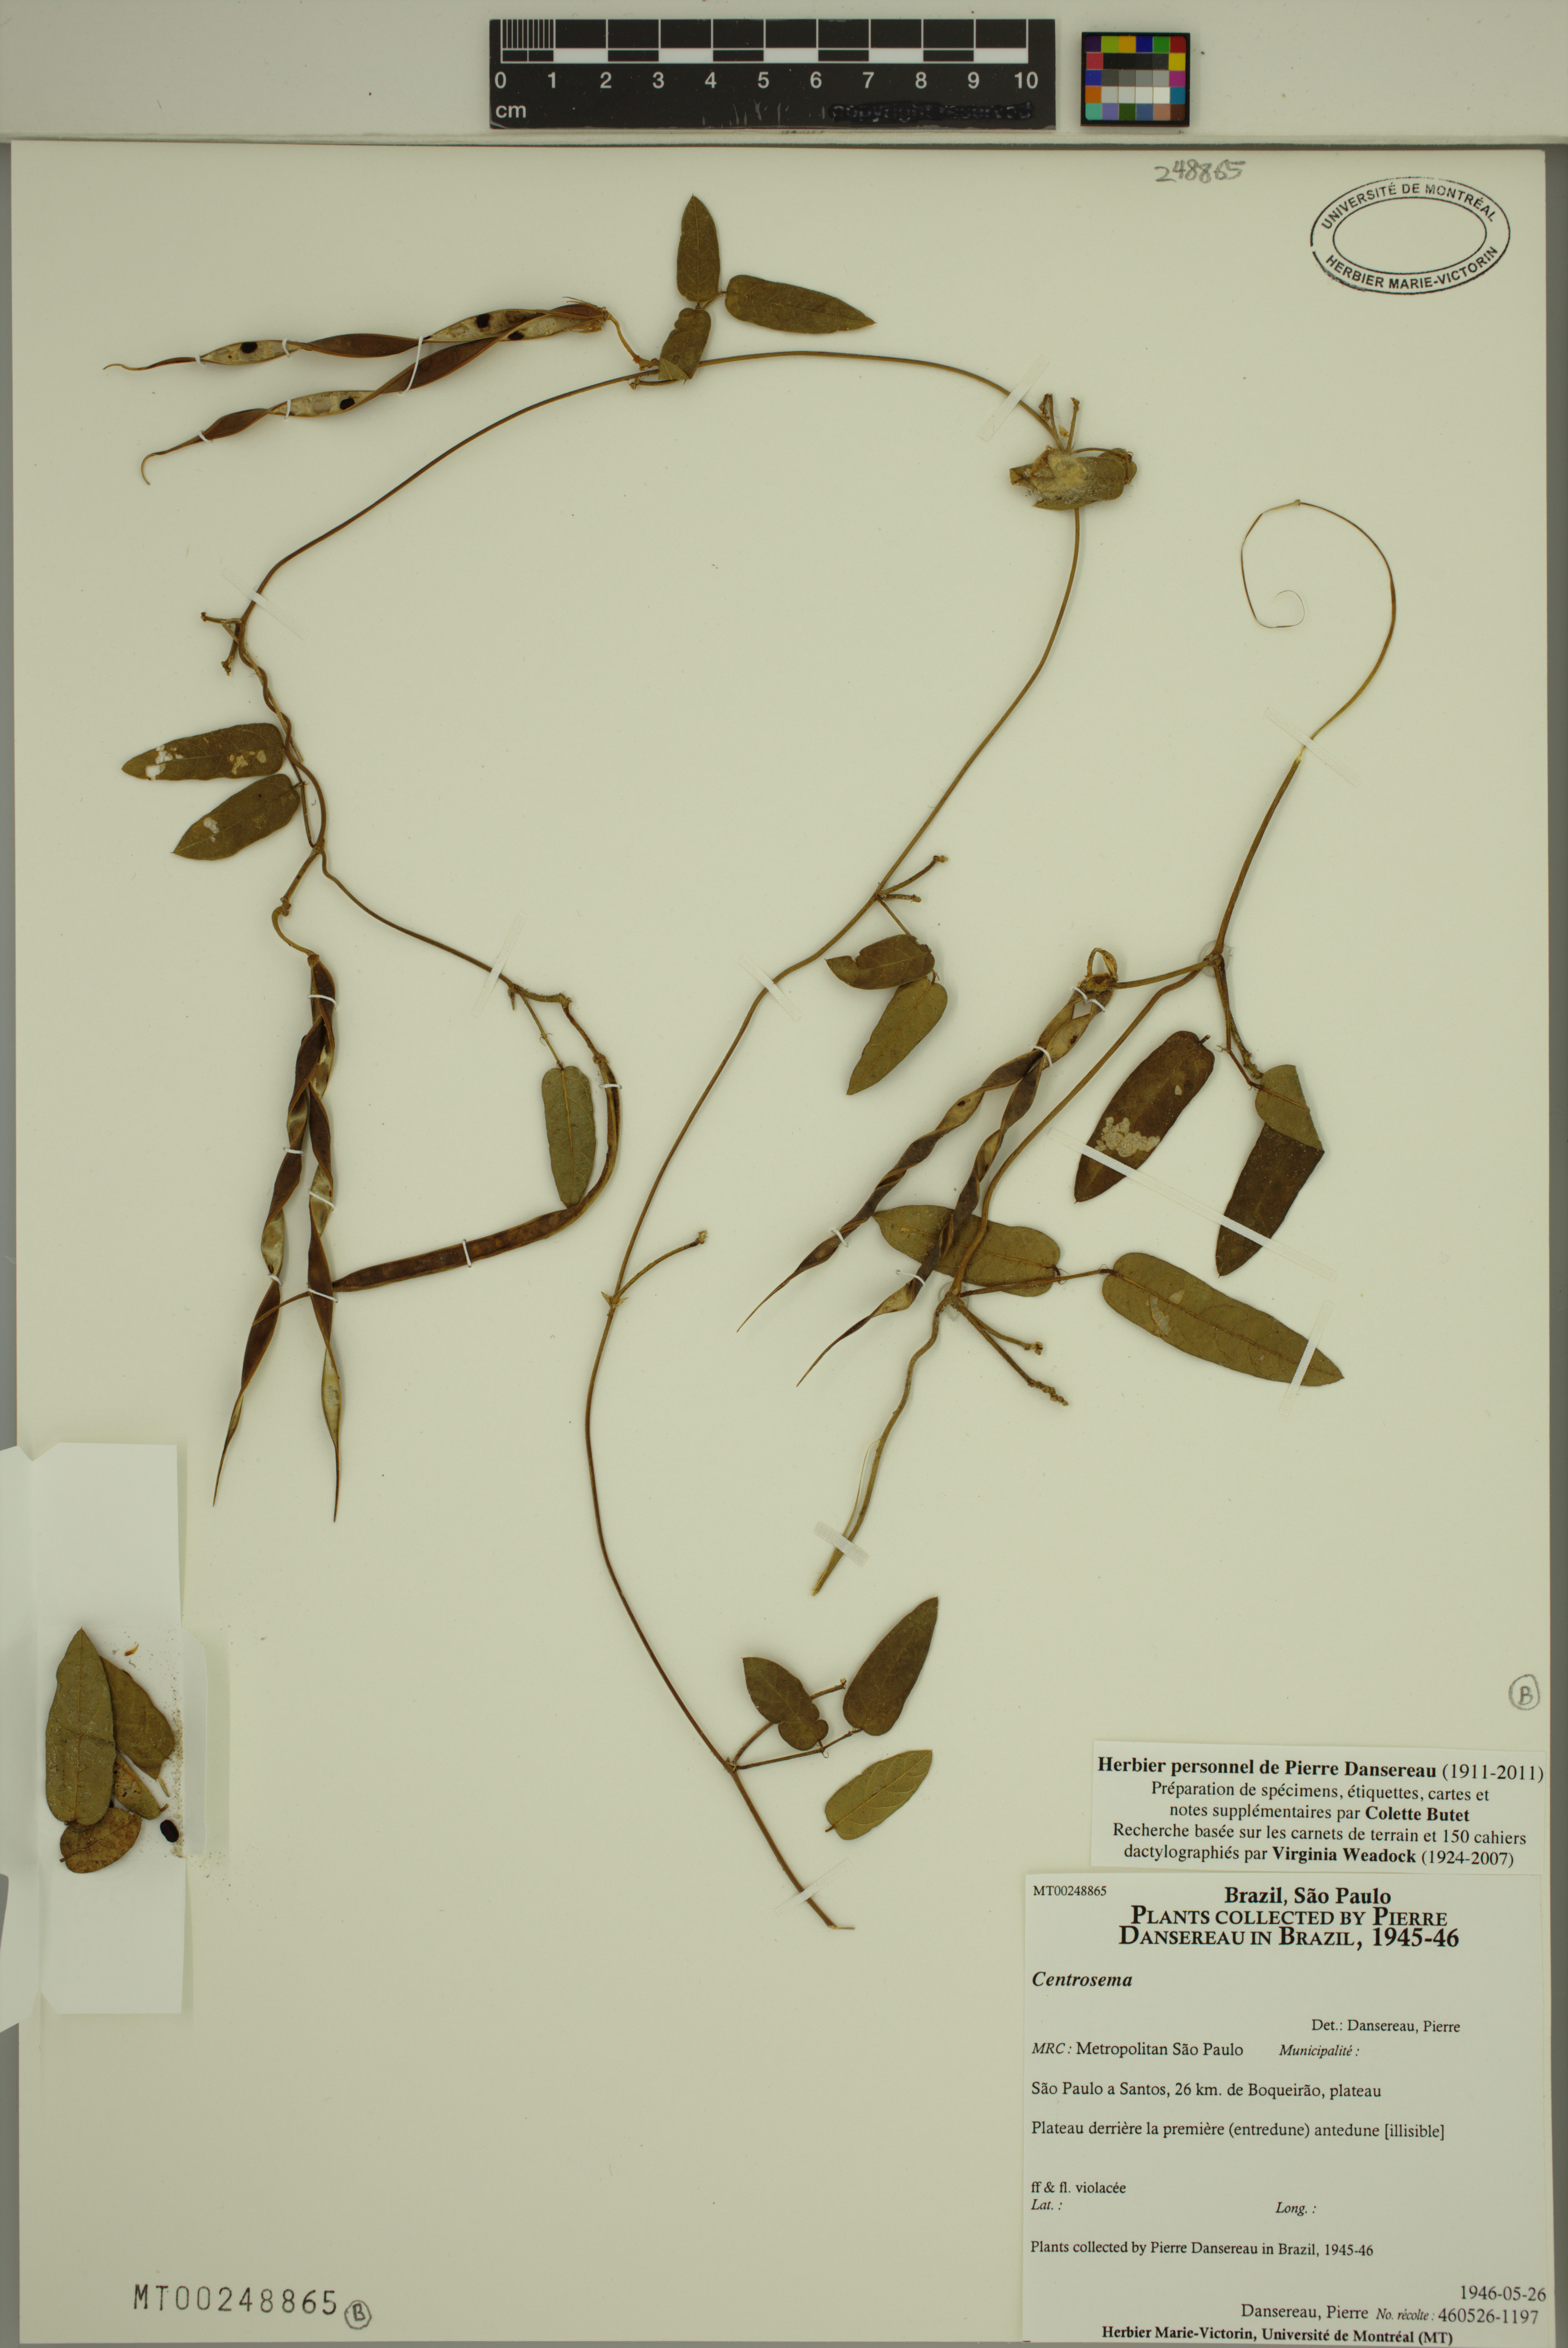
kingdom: Plantae
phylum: Tracheophyta
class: Magnoliopsida
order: Fabales
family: Fabaceae
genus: Centrosema
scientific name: Centrosema
